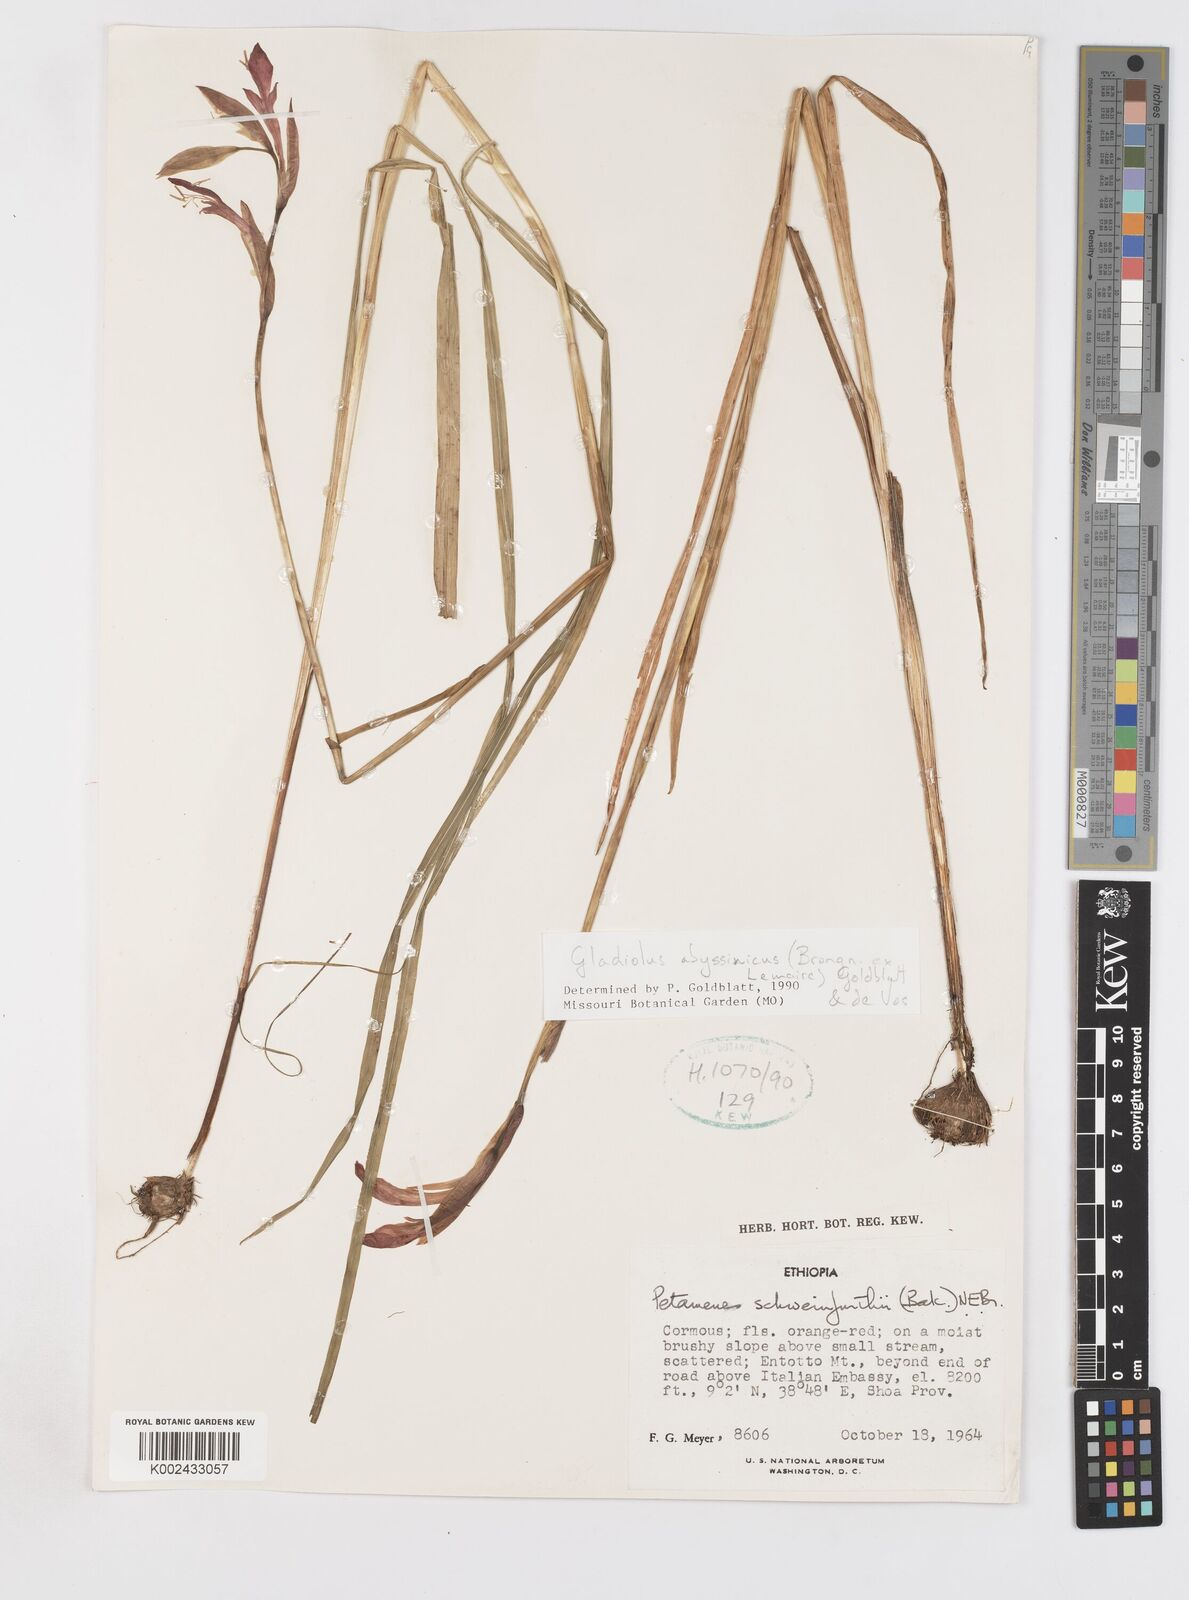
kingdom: Plantae
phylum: Tracheophyta
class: Liliopsida
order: Asparagales
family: Iridaceae
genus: Gladiolus
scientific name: Gladiolus abyssinicus
